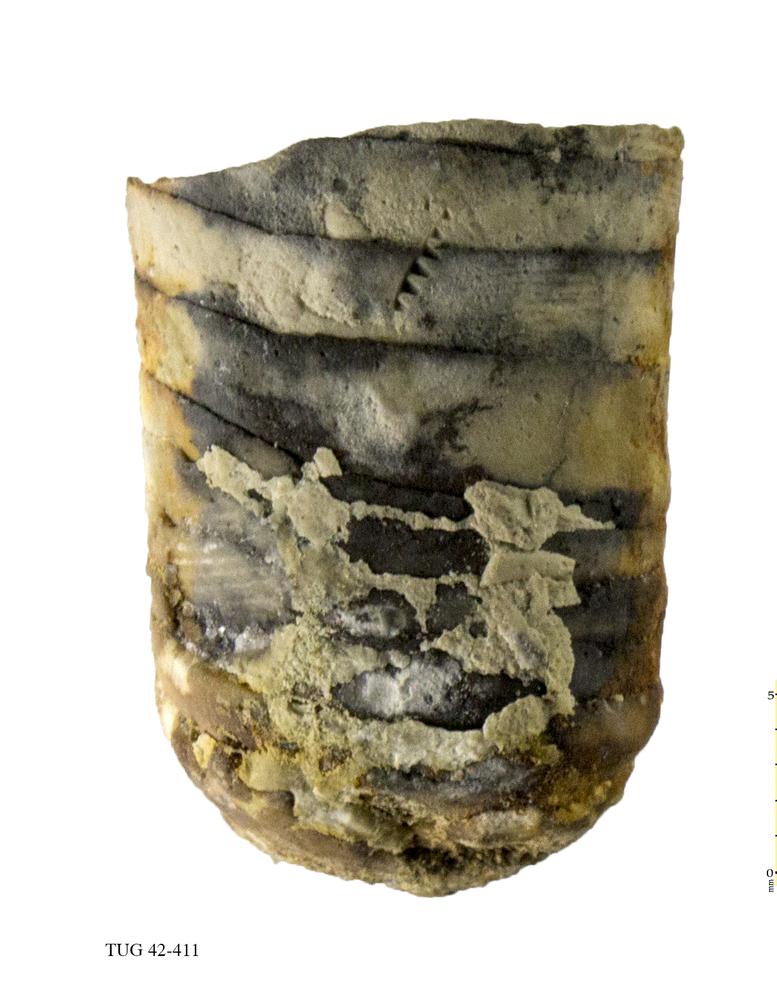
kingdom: Animalia
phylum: Mollusca
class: Cephalopoda
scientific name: Cephalopoda
